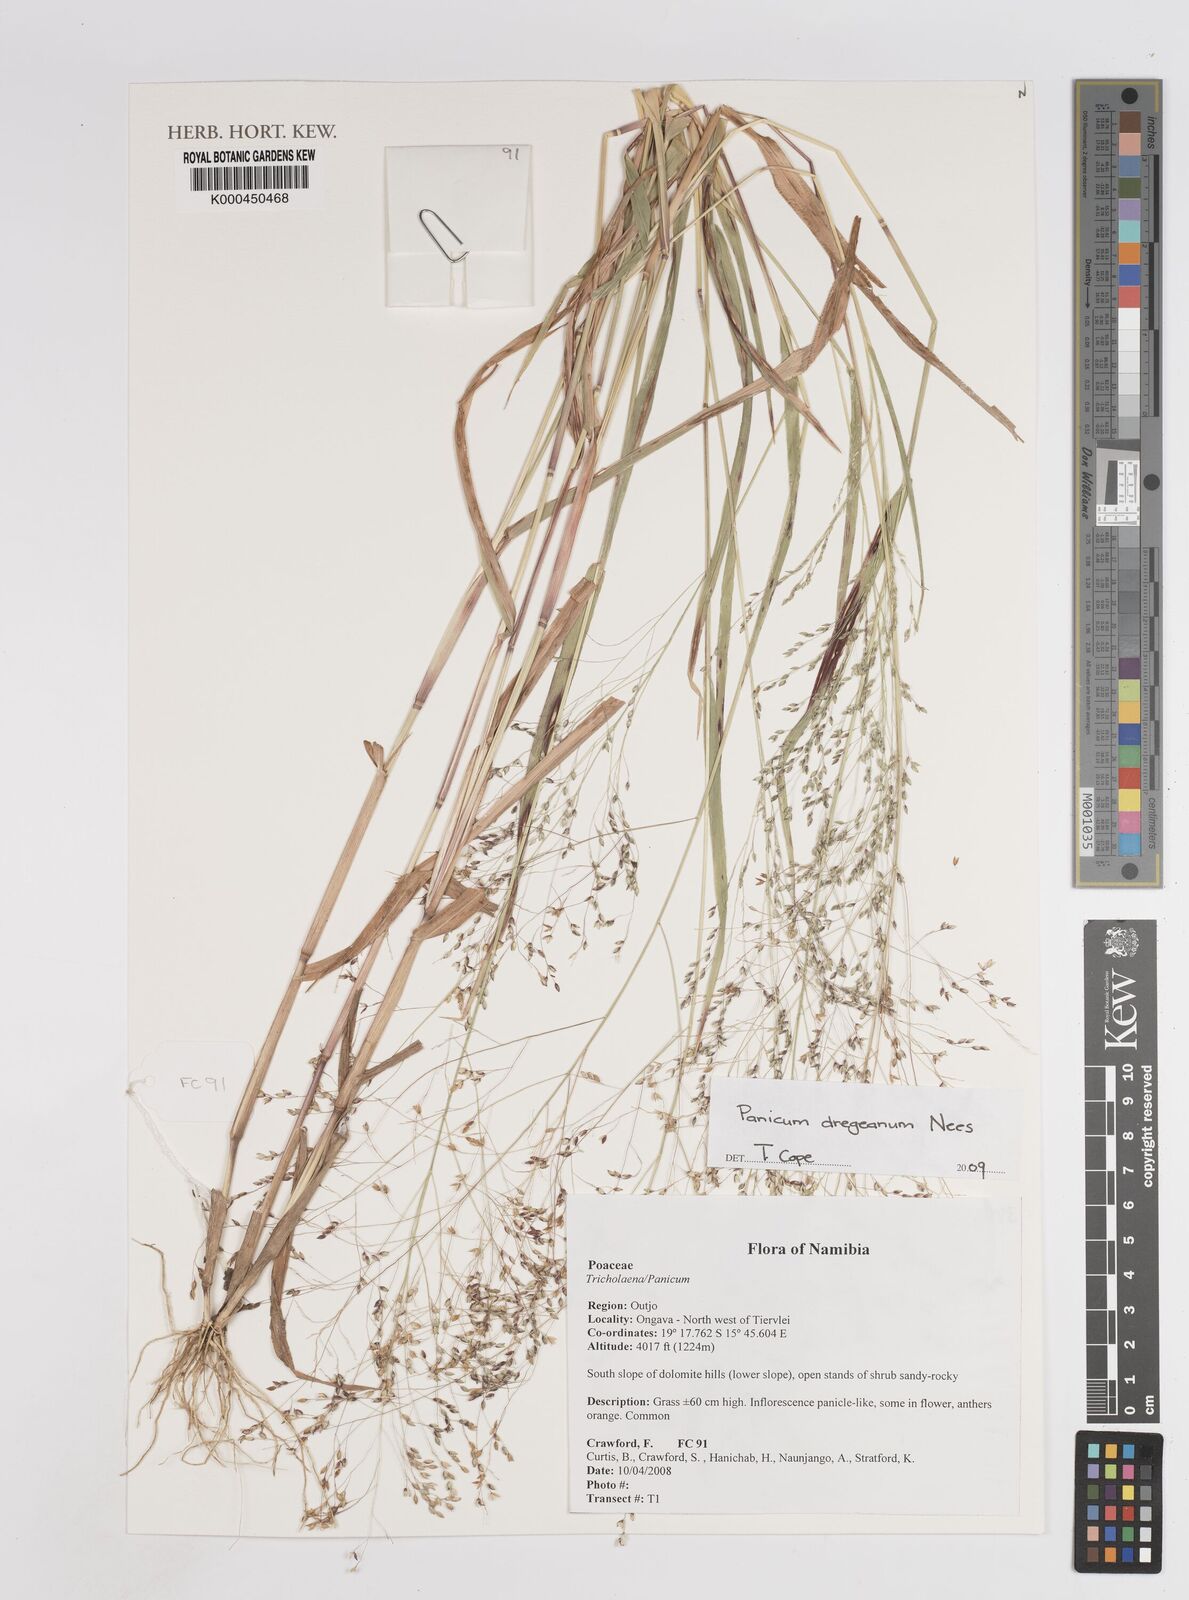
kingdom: Plantae
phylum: Tracheophyta
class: Liliopsida
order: Poales
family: Poaceae
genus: Panicum
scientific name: Panicum dregeanum
